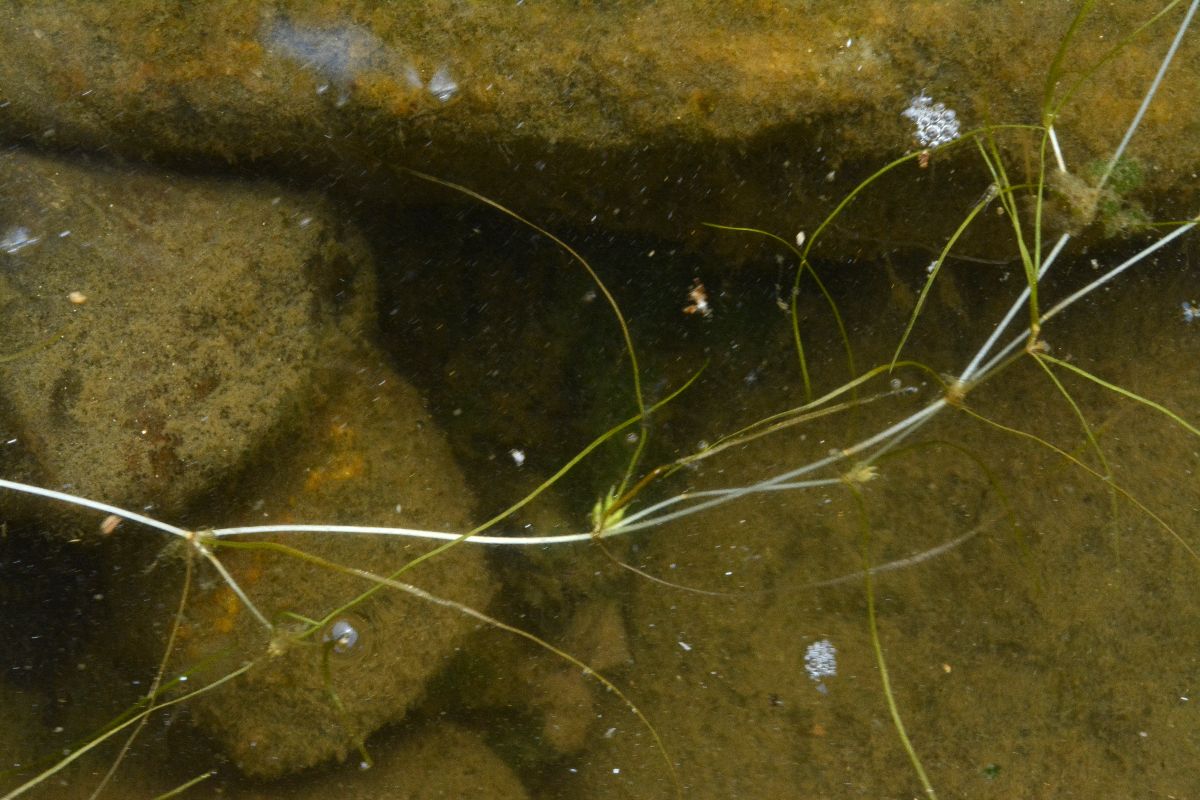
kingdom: Plantae
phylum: Tracheophyta
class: Liliopsida
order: Alismatales
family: Potamogetonaceae
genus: Zannichellia
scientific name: Zannichellia palustris
